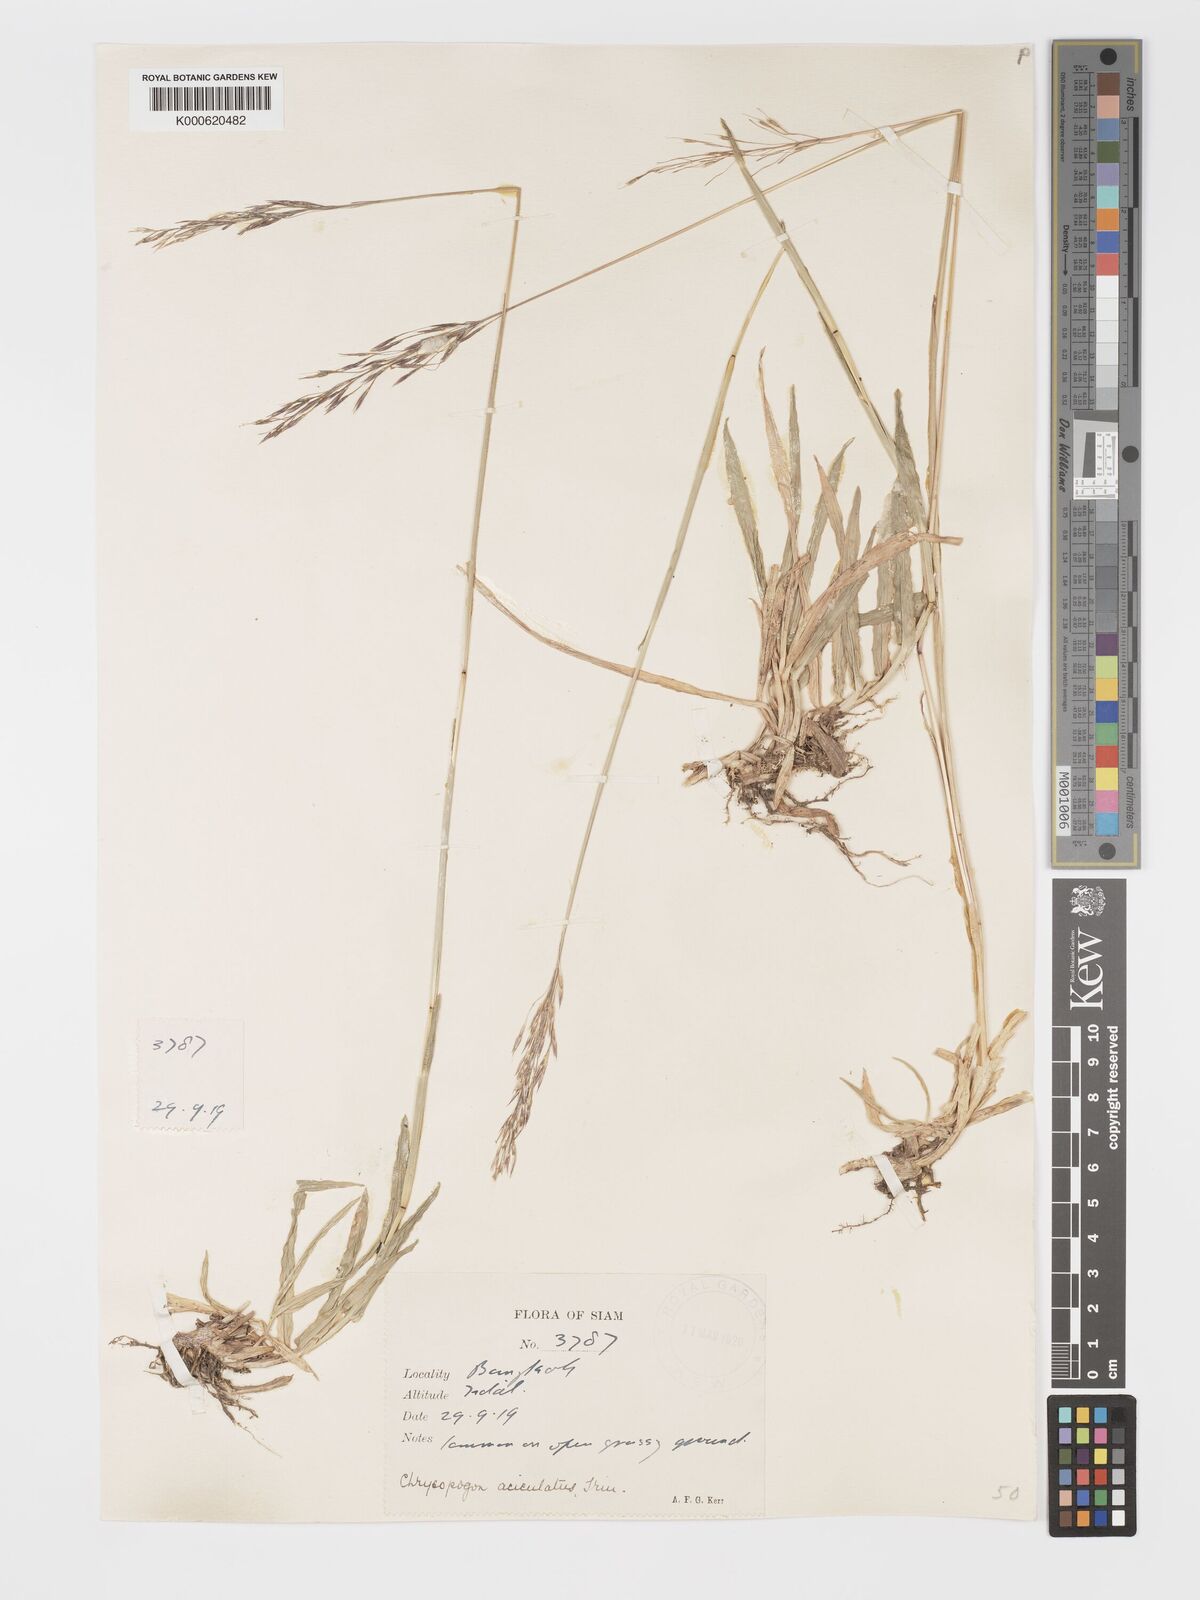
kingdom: Plantae
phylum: Tracheophyta
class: Liliopsida
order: Poales
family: Poaceae
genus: Chrysopogon
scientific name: Chrysopogon aciculatus
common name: Pilipiliula
